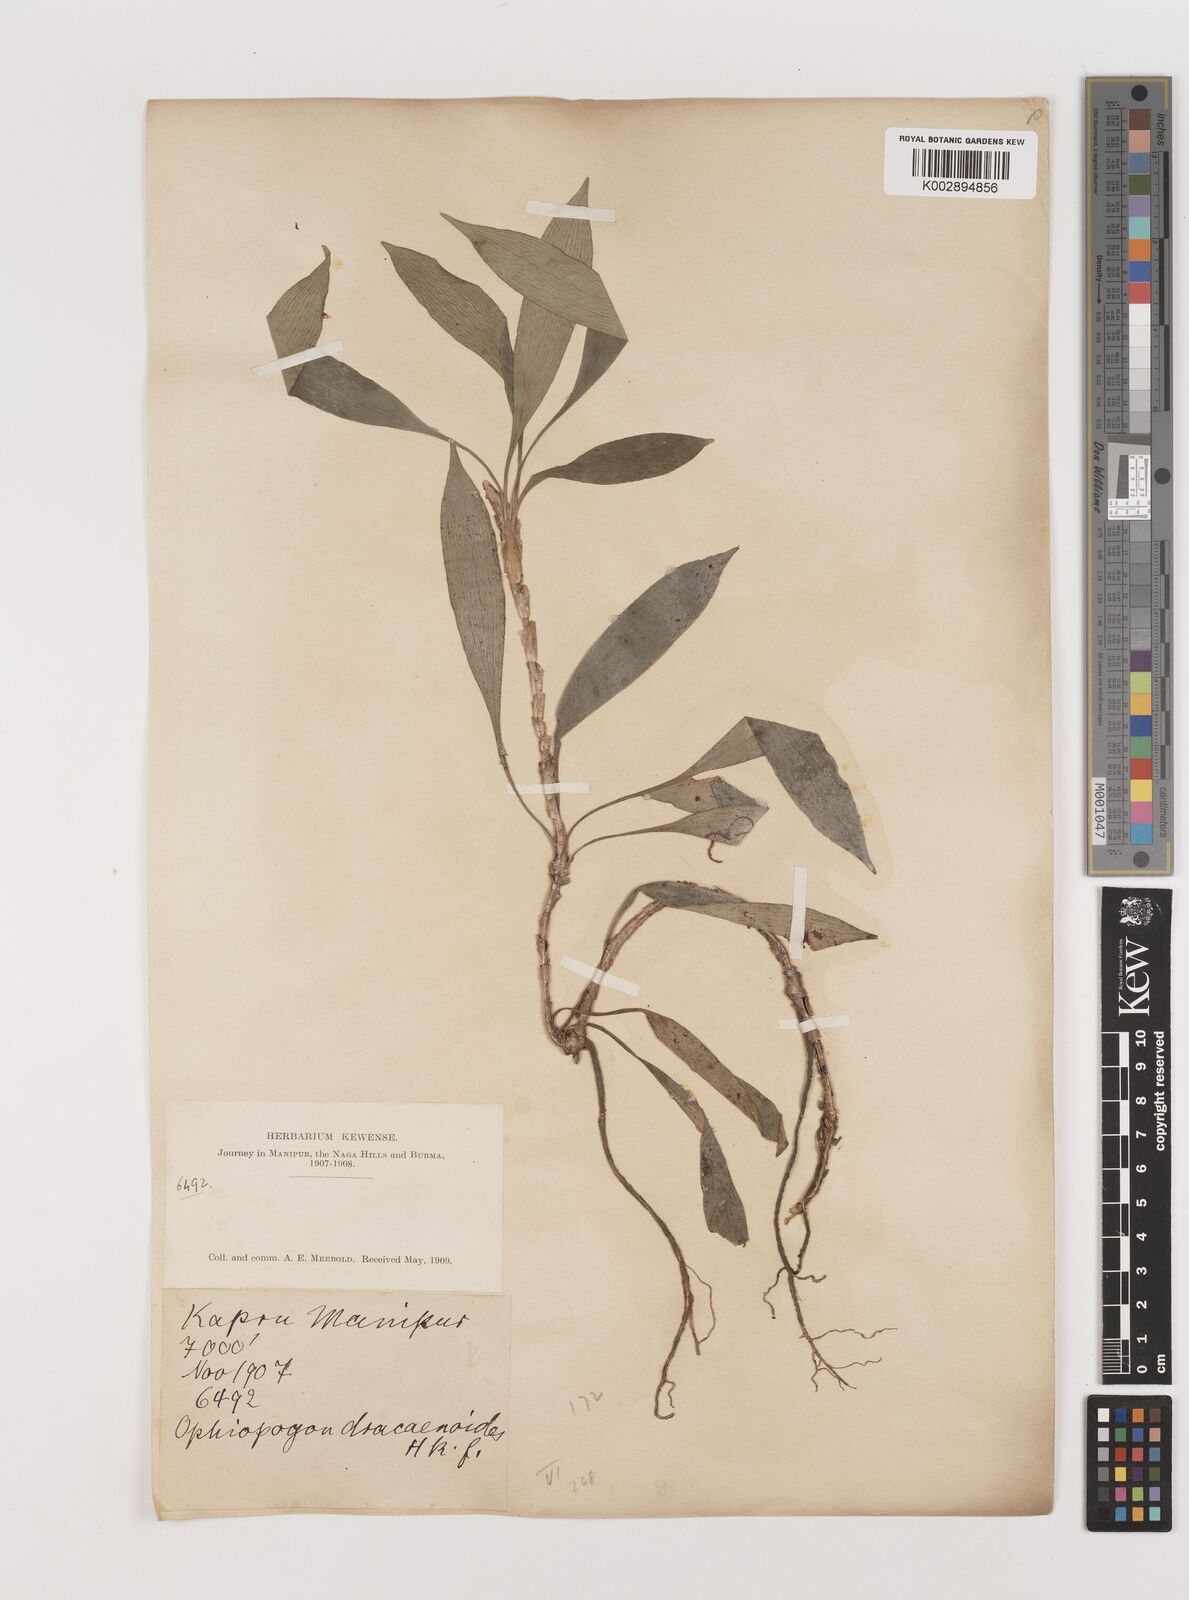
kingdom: Plantae
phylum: Tracheophyta
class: Liliopsida
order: Asparagales
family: Asparagaceae
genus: Ophiopogon
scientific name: Ophiopogon dracaenoides
